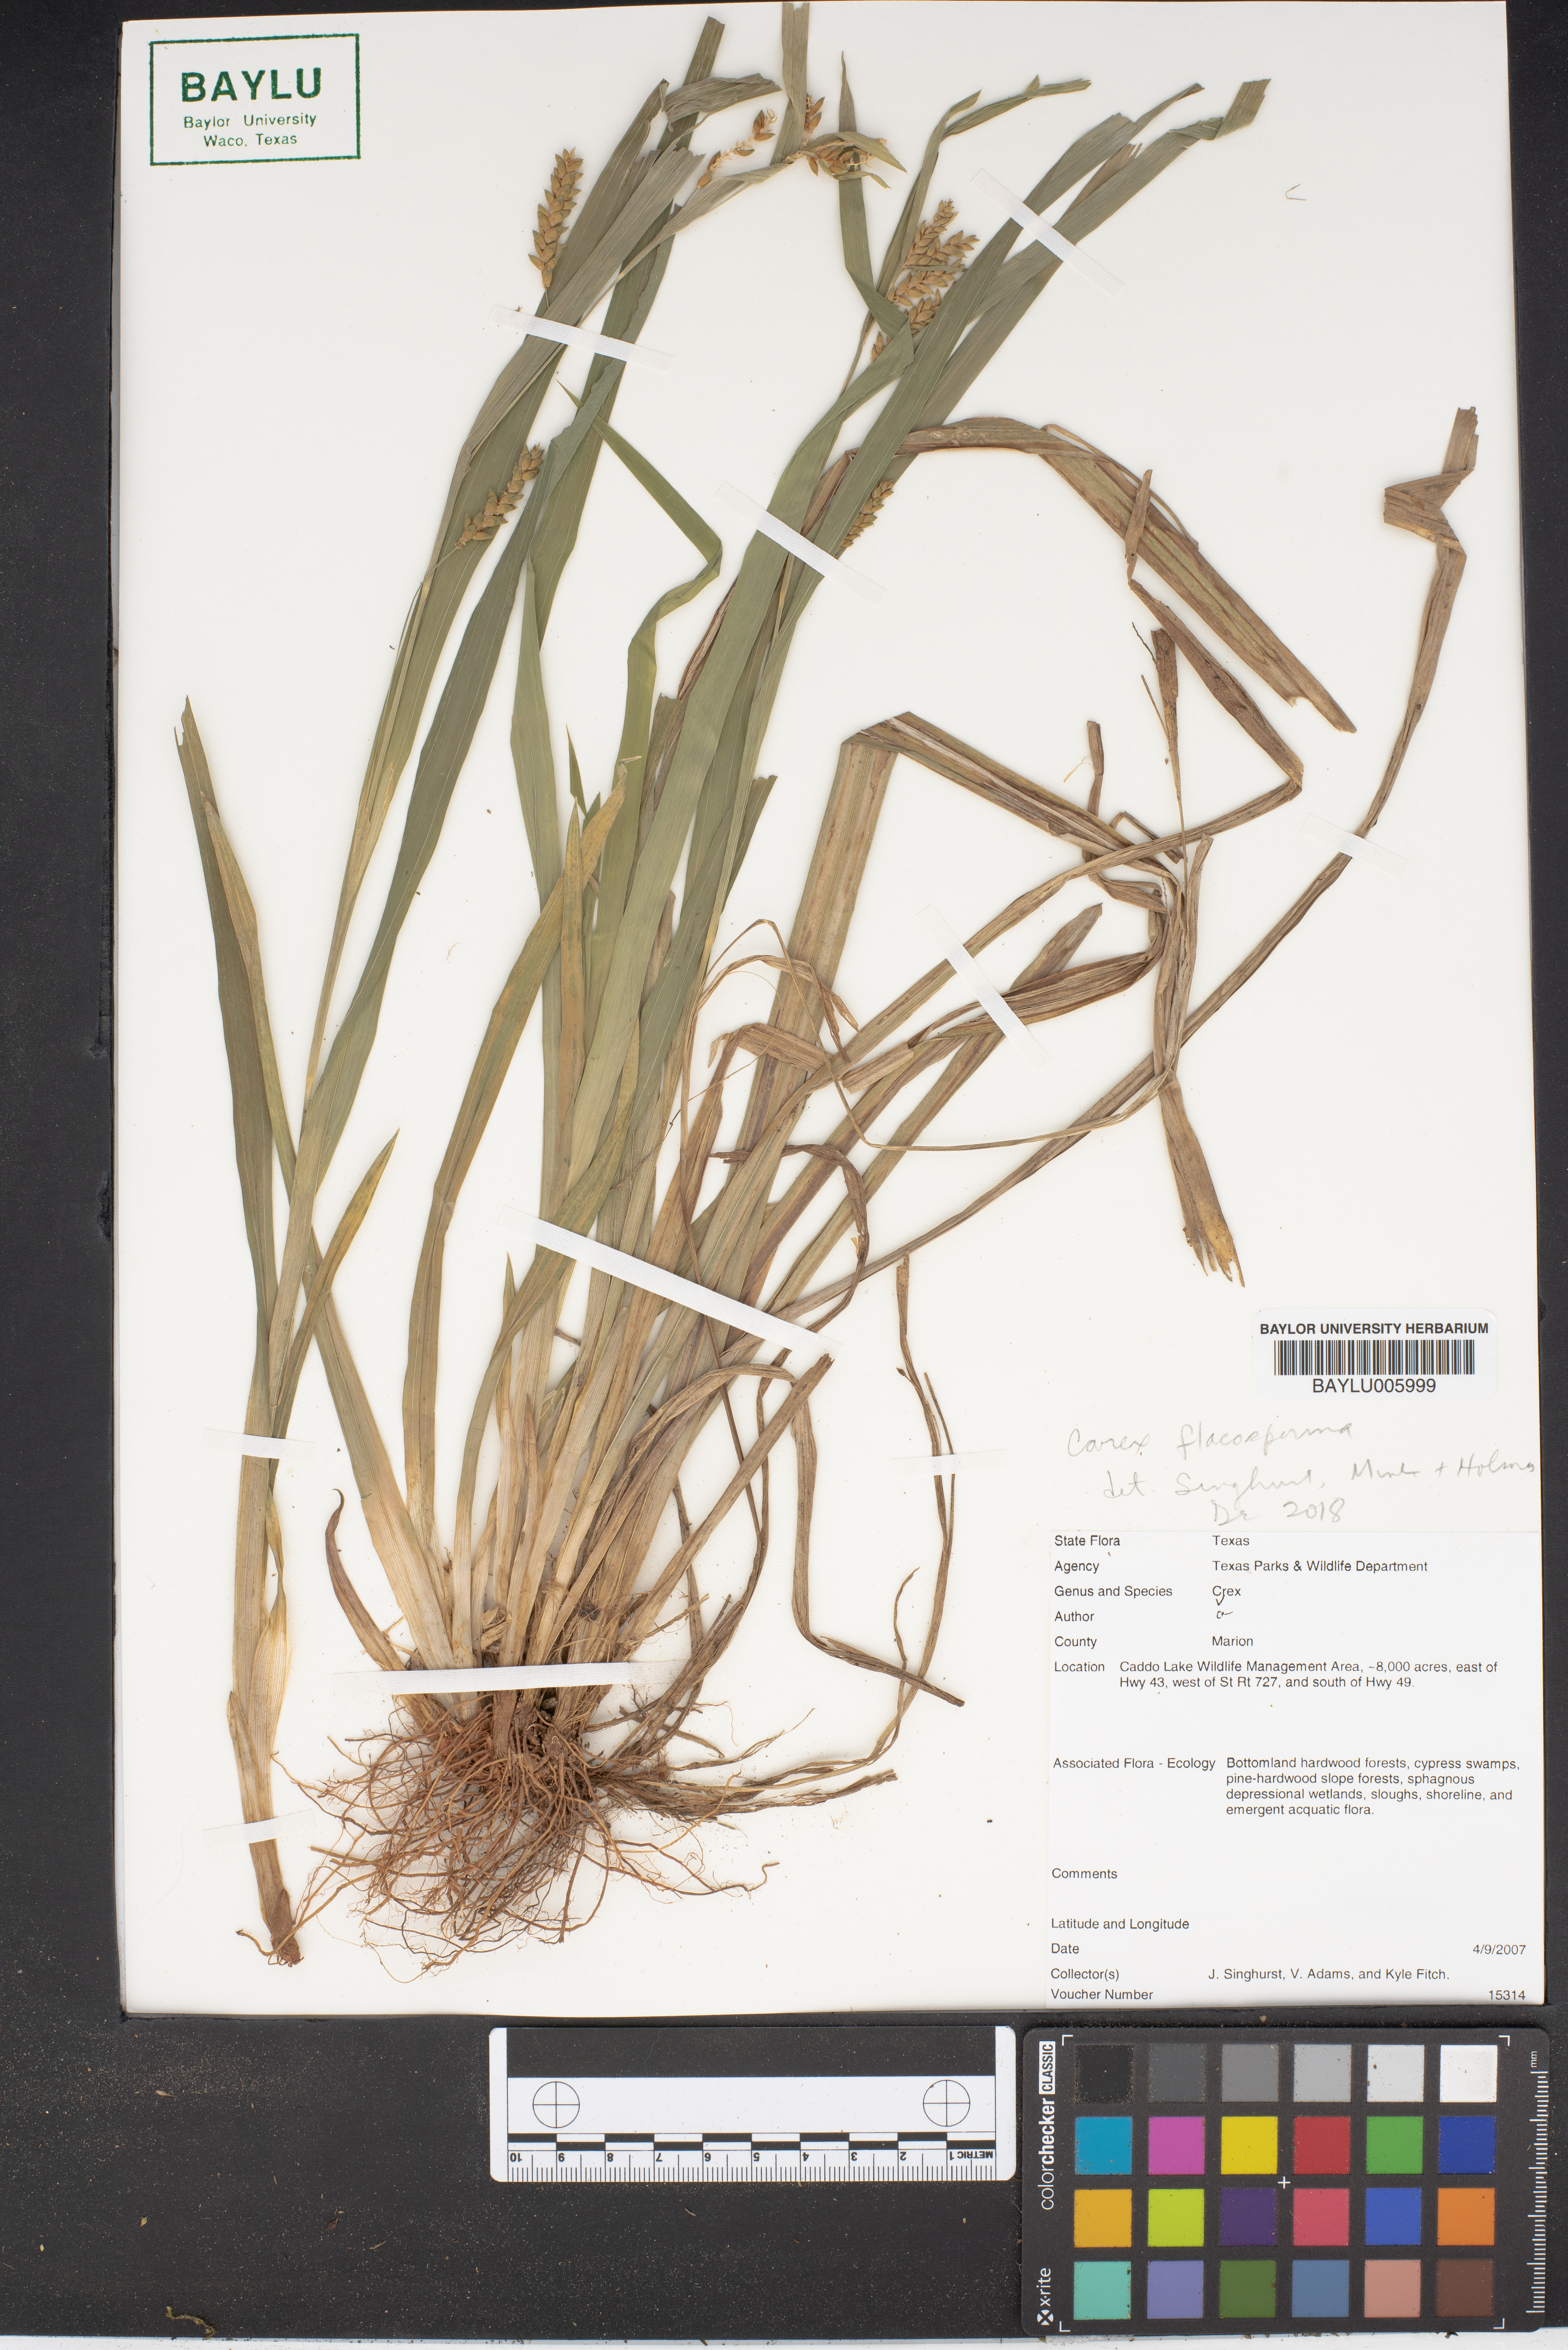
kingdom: Plantae
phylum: Tracheophyta
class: Liliopsida
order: Poales
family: Cyperaceae
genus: Carex
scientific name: Carex flaccosperma
